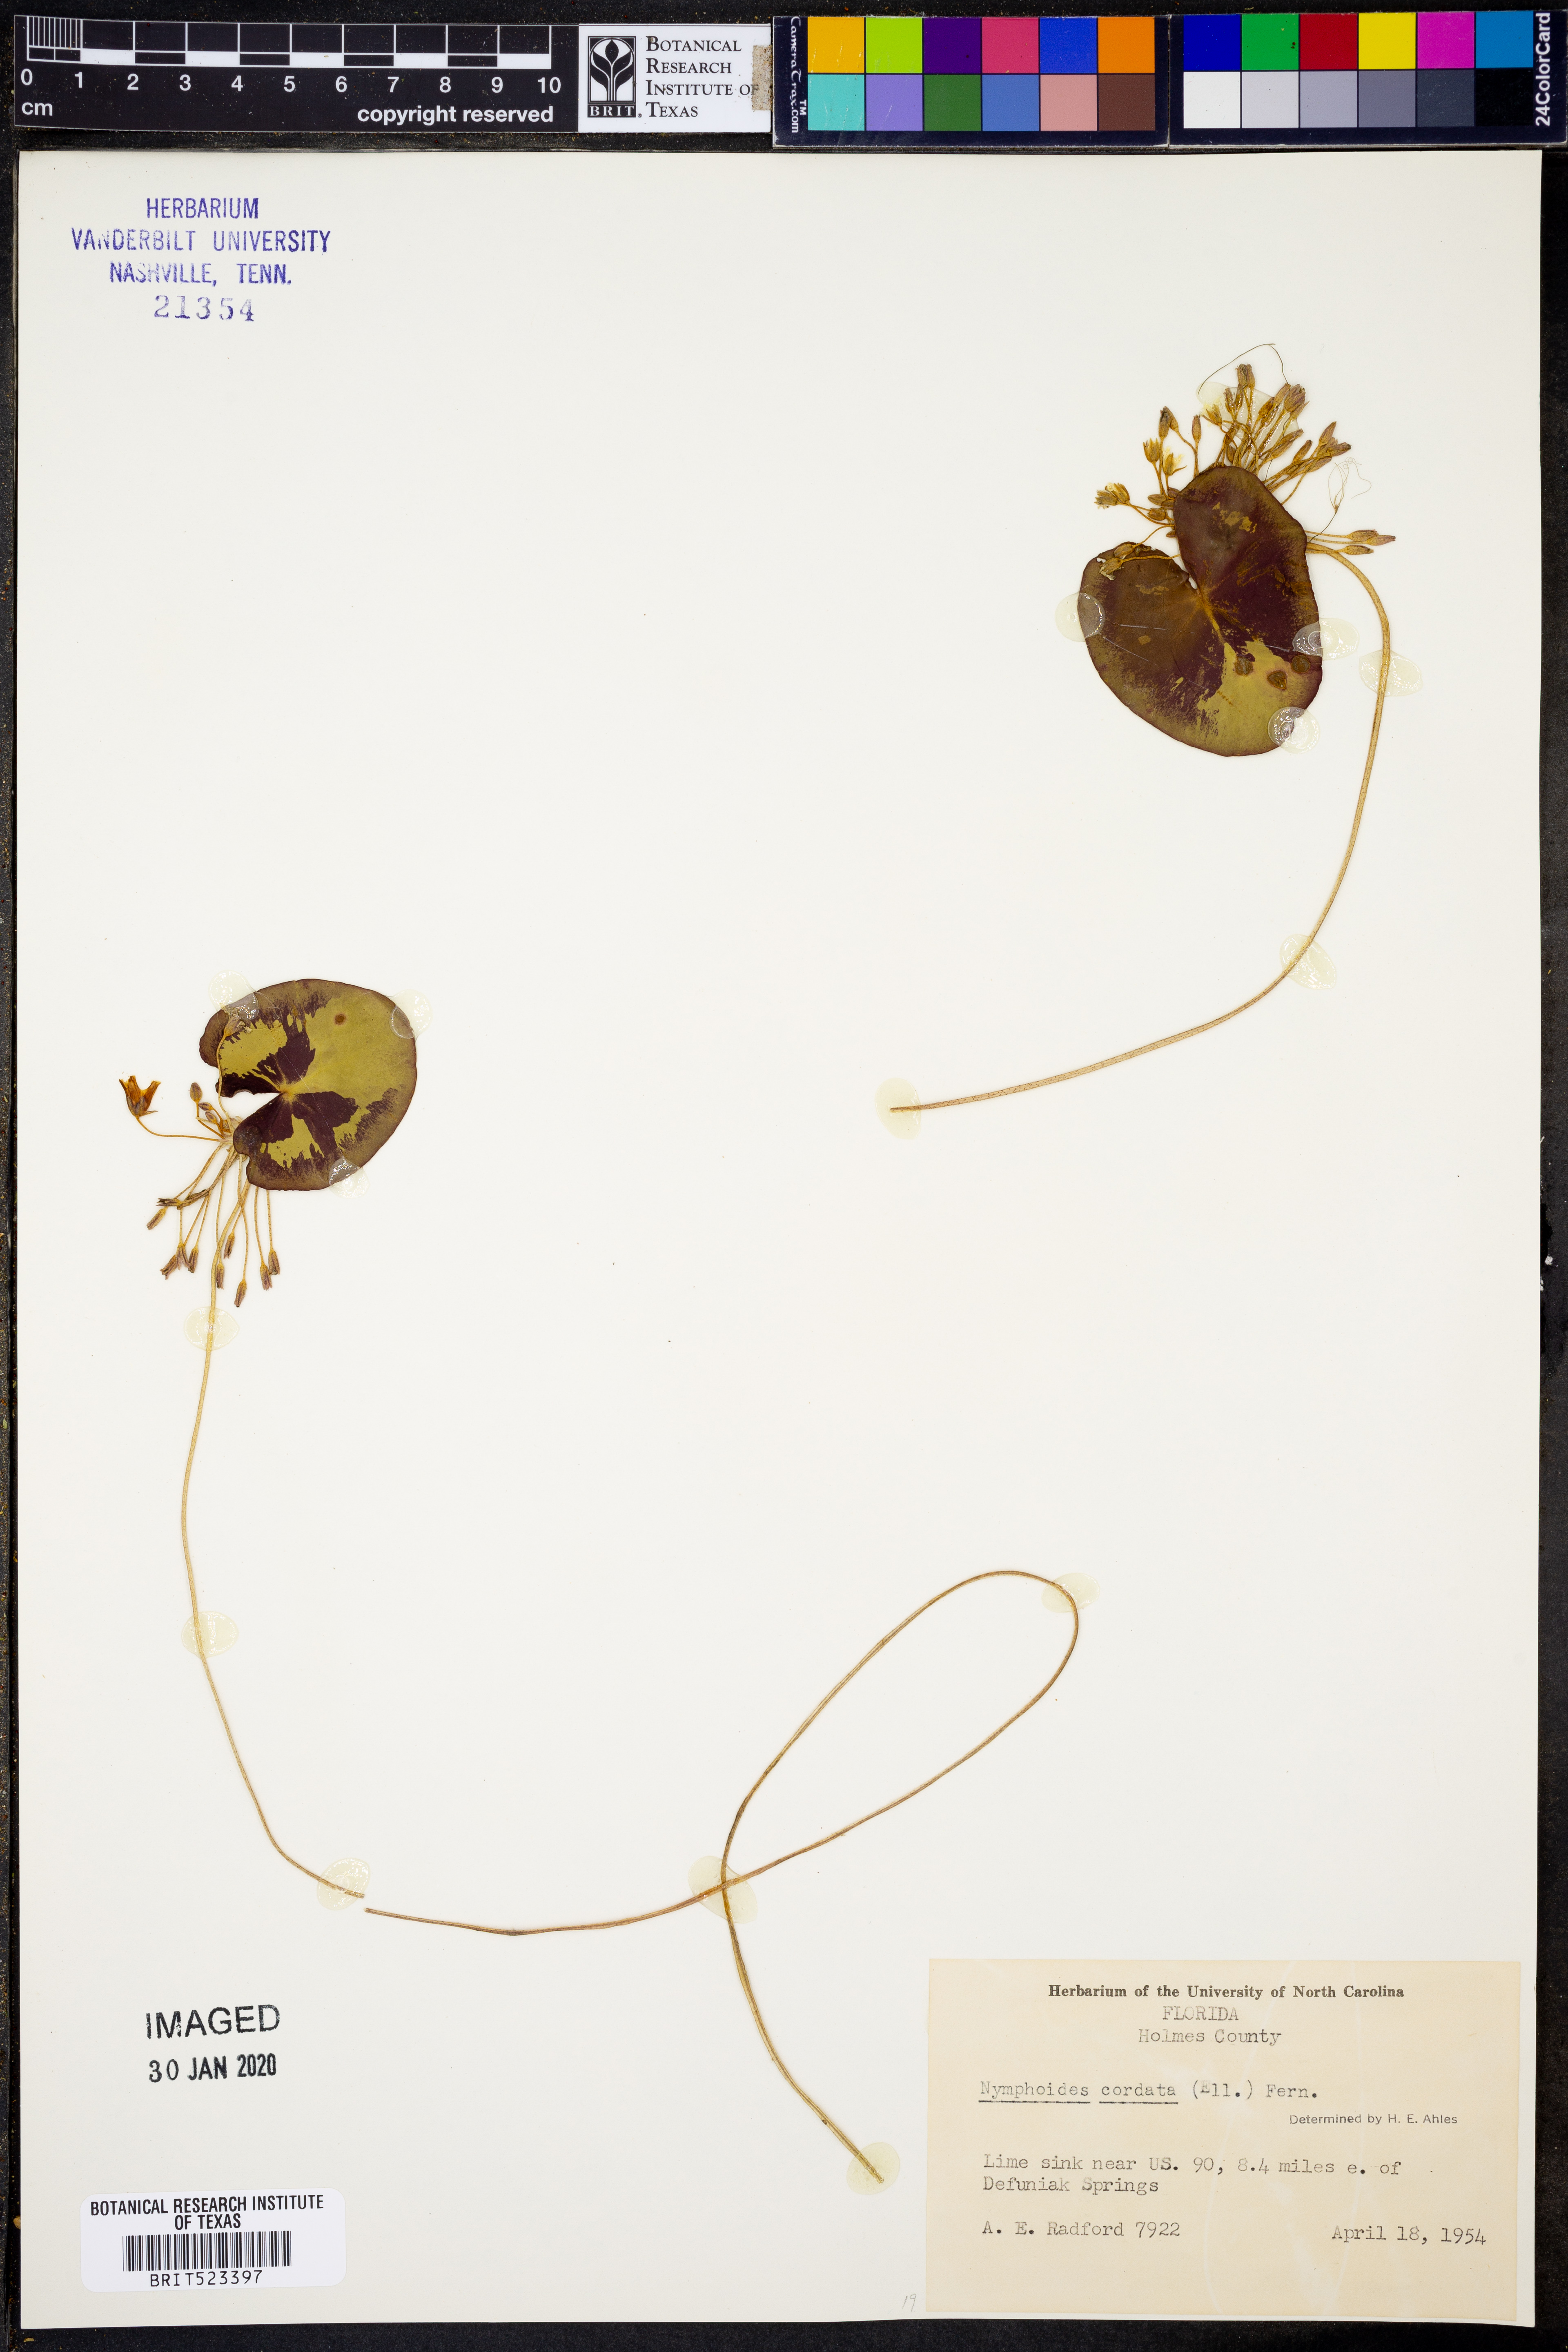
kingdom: Plantae
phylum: Tracheophyta
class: Magnoliopsida
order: Asterales
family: Menyanthaceae
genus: Nymphoides
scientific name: Nymphoides cordata
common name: Eight-angled floatingheart
